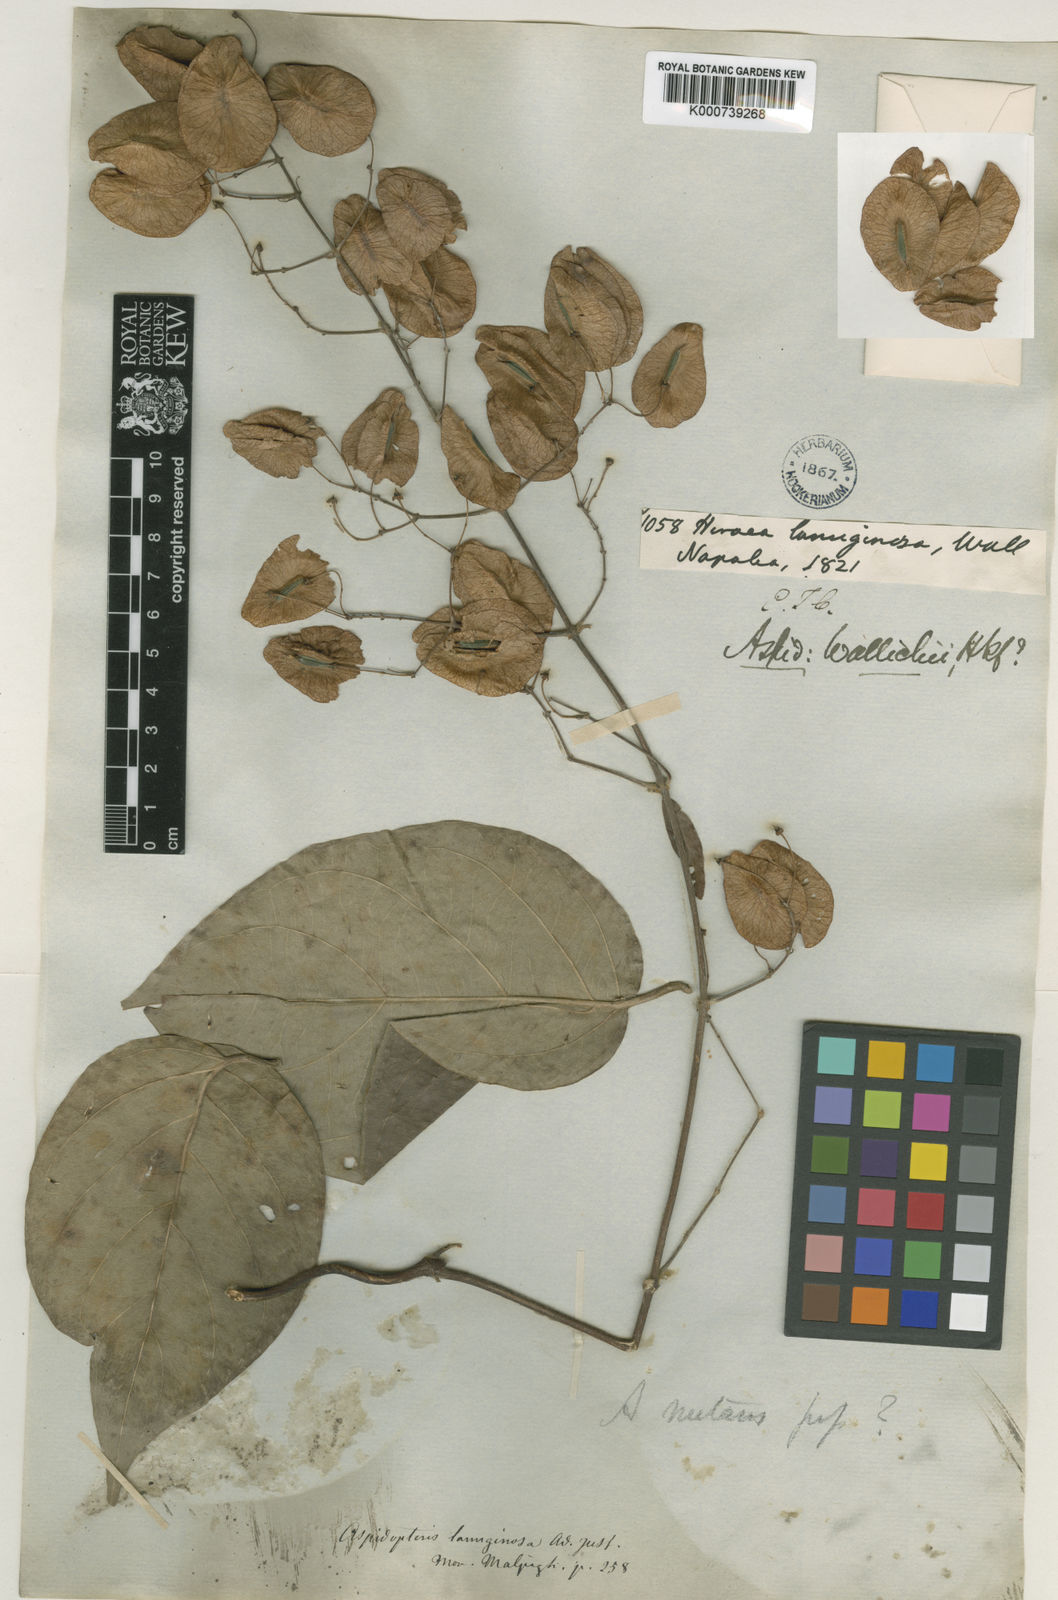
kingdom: Plantae
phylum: Tracheophyta
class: Magnoliopsida
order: Malpighiales
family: Malpighiaceae
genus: Aspidopterys
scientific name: Aspidopterys nutans
